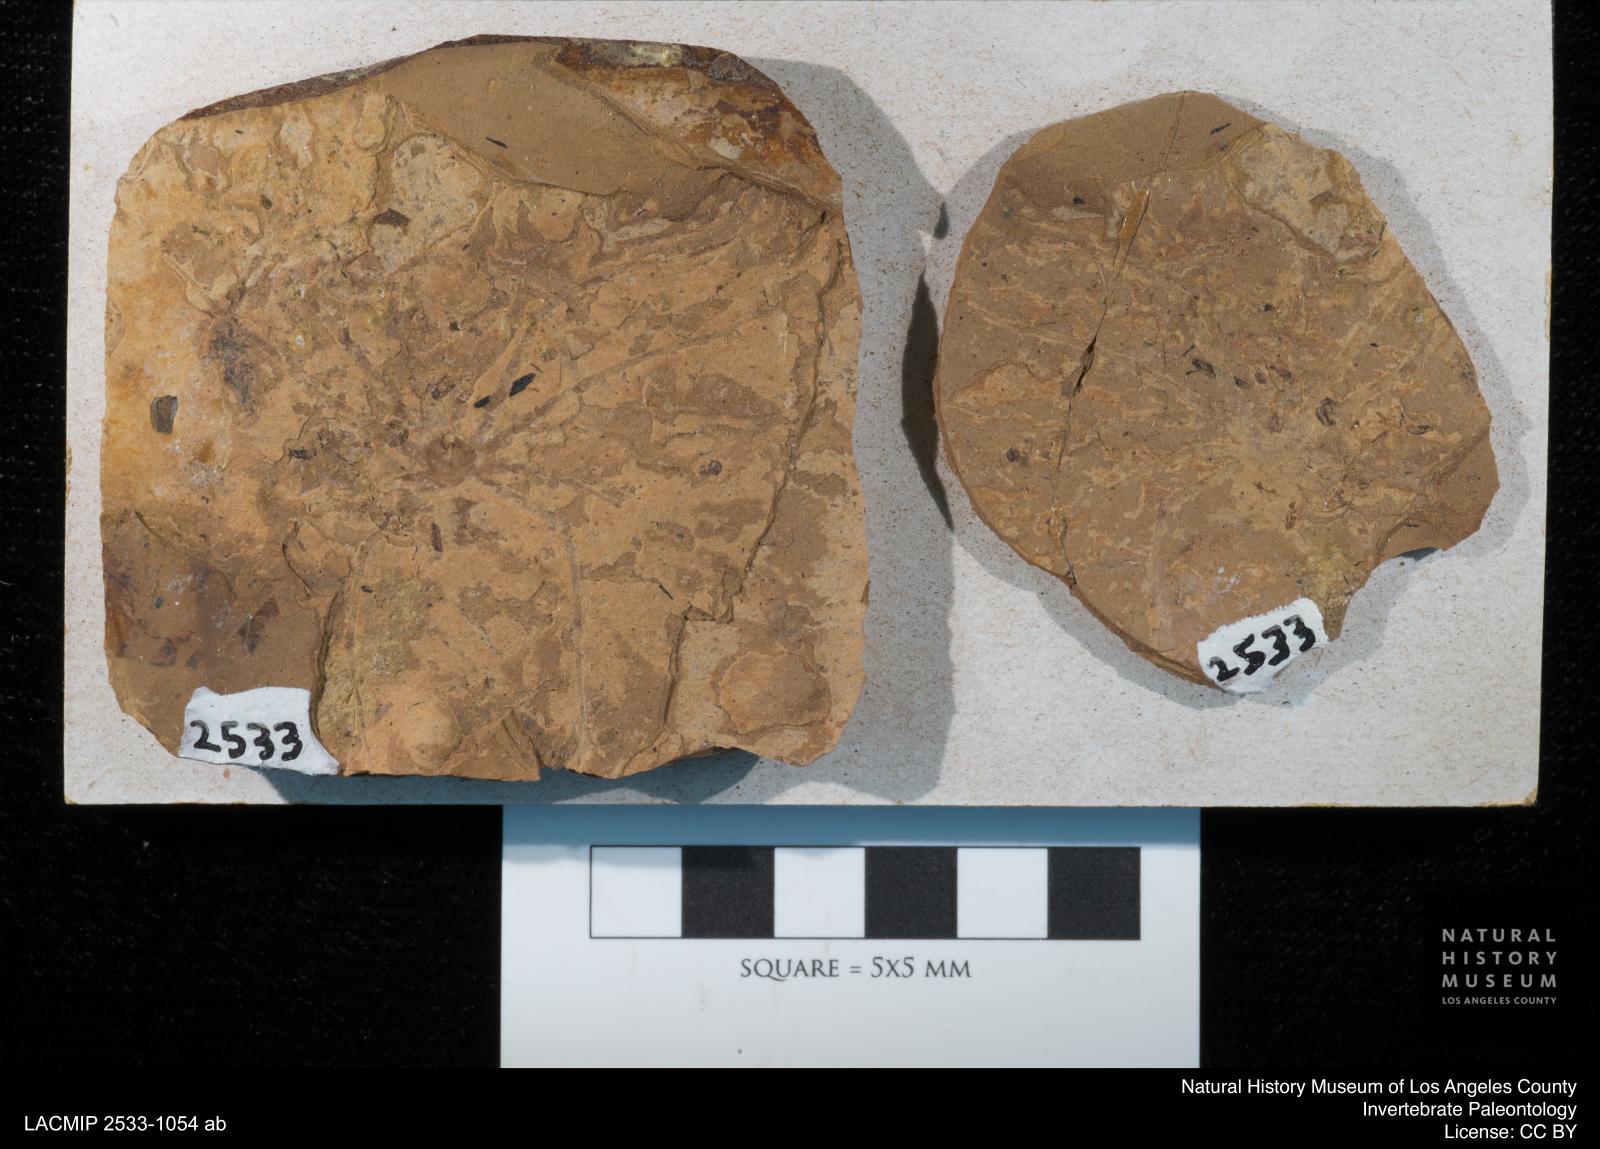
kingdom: Animalia
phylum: Arthropoda
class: Arachnida
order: Araneae
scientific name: Araneae
